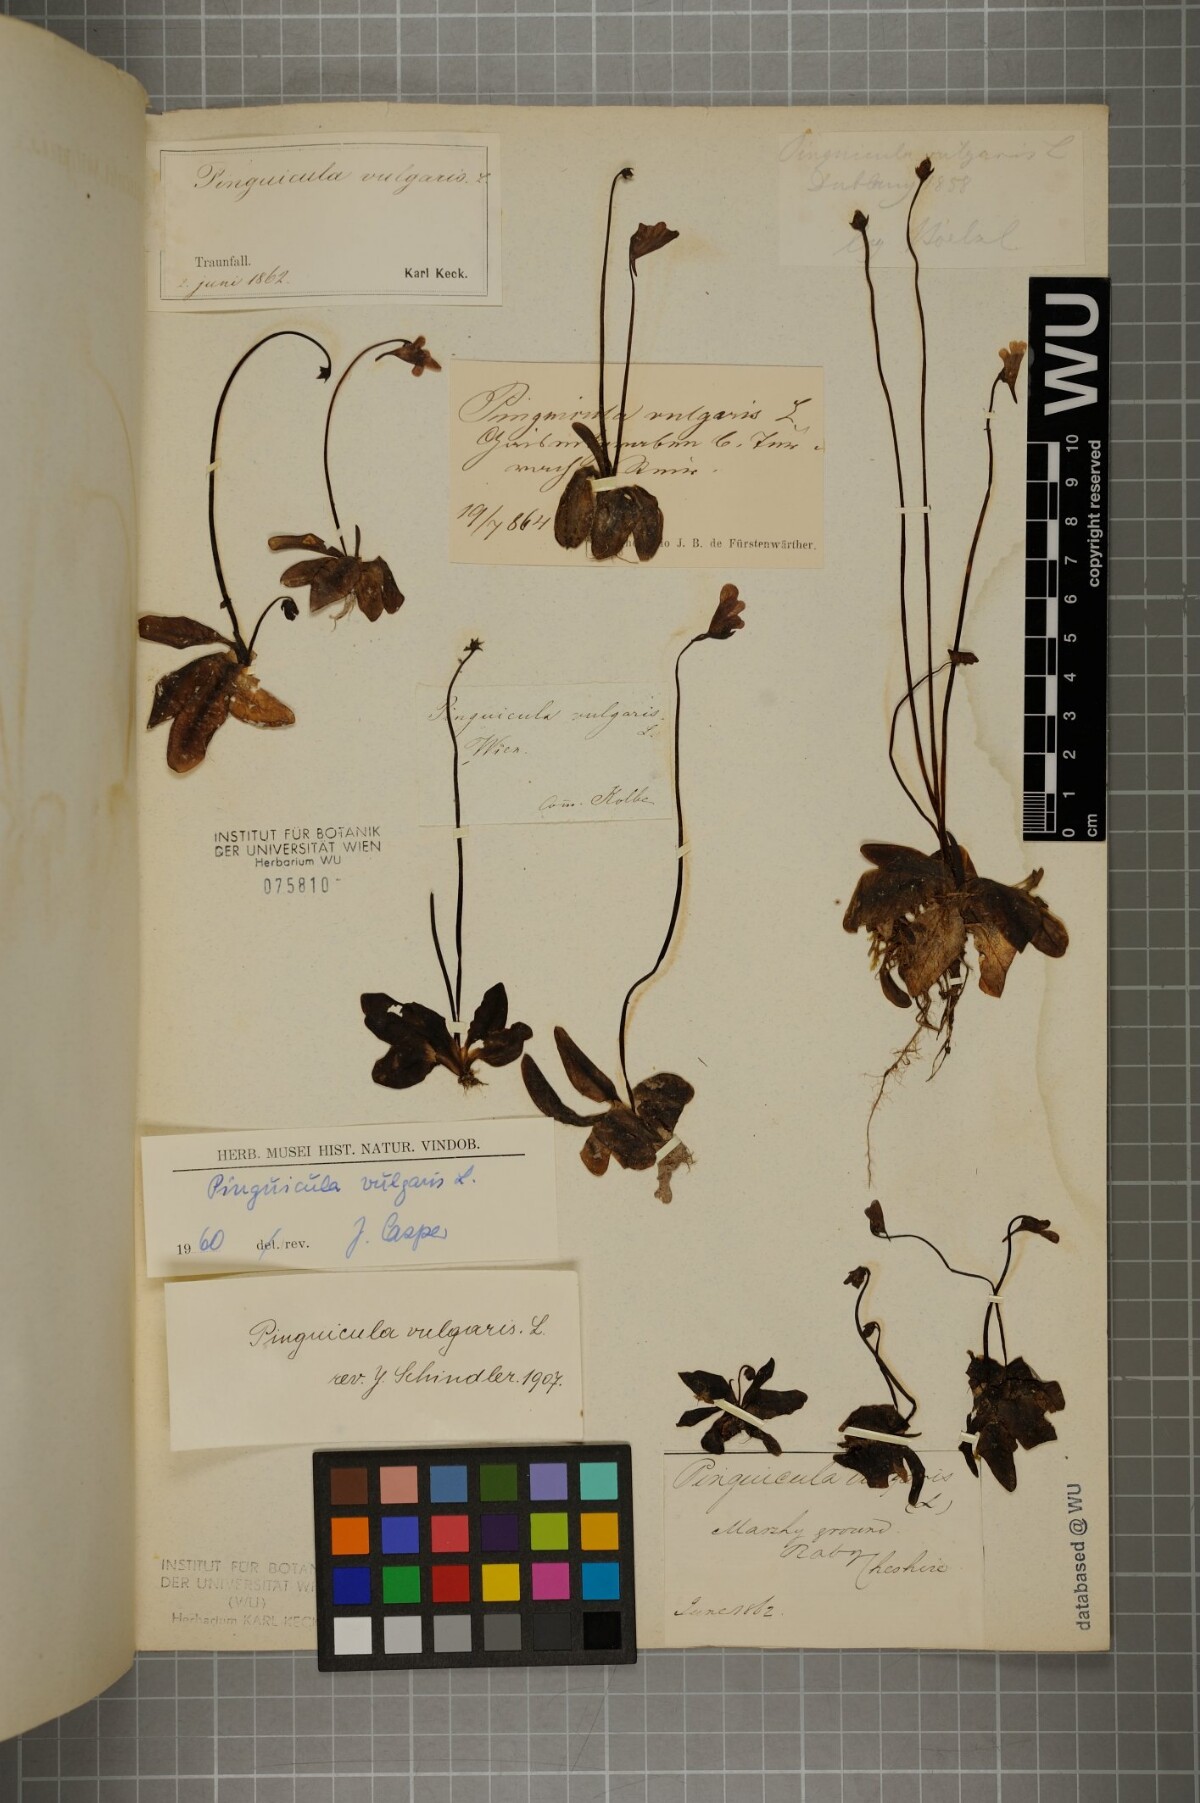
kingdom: Plantae
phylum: Tracheophyta
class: Magnoliopsida
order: Lamiales
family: Lentibulariaceae
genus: Pinguicula
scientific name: Pinguicula vulgaris
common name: Common butterwort
